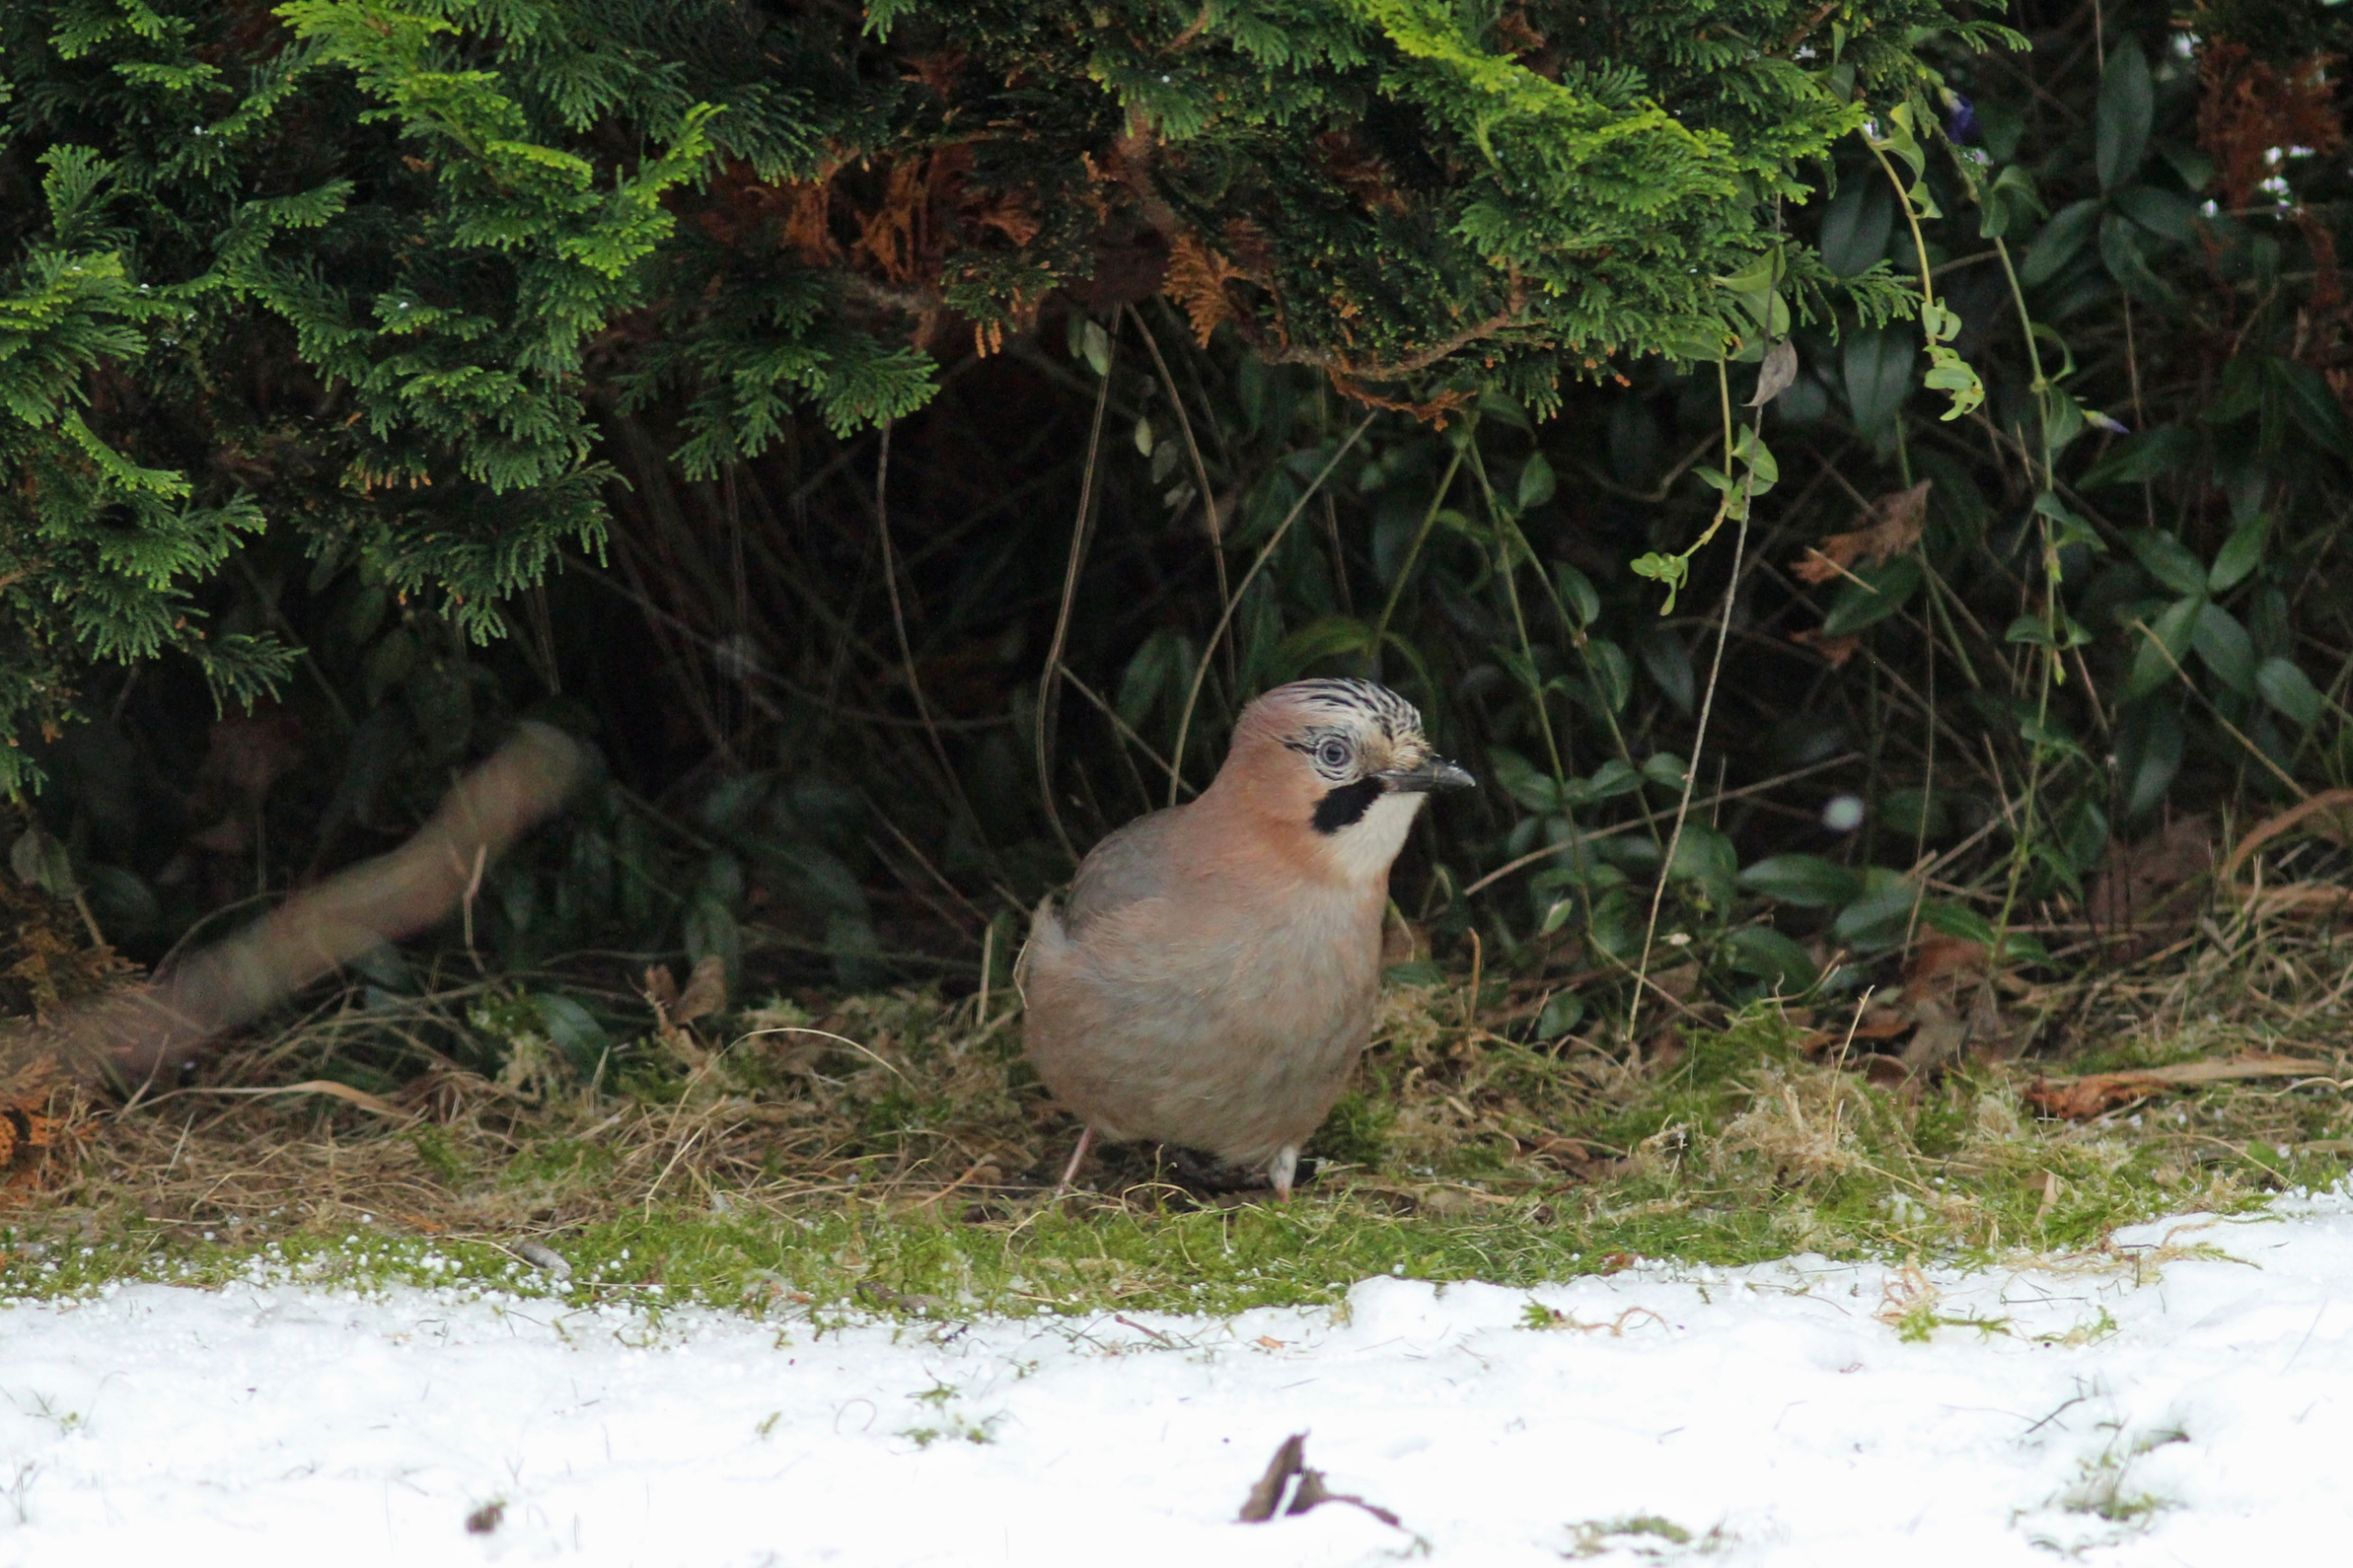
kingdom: Animalia
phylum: Chordata
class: Aves
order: Passeriformes
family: Corvidae
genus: Garrulus
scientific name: Garrulus glandarius
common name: Skovskade
